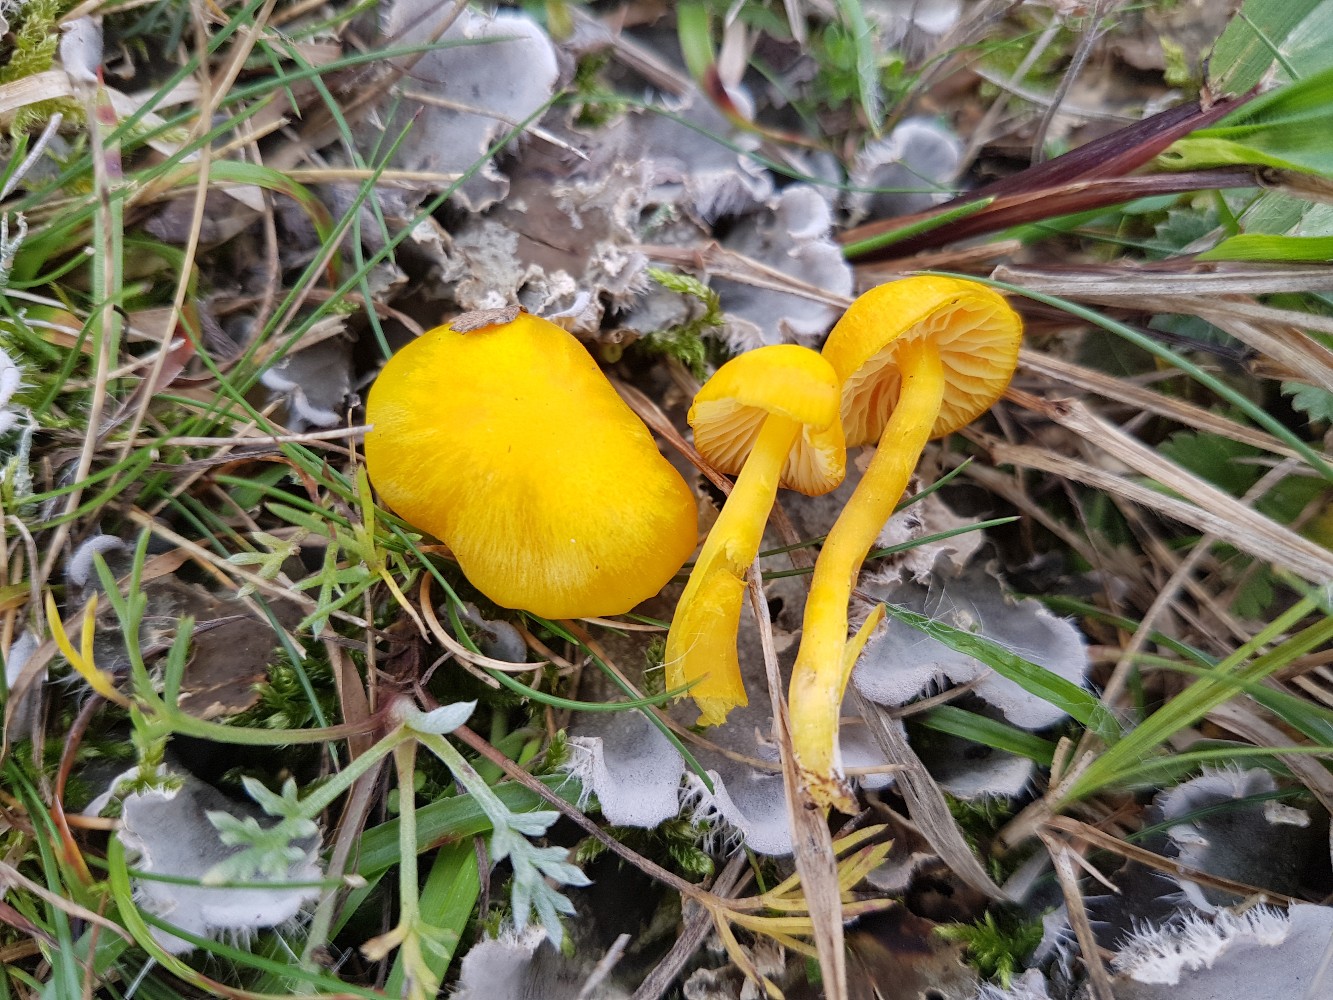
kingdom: Fungi
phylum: Basidiomycota
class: Agaricomycetes
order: Agaricales
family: Hygrophoraceae
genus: Hygrocybe
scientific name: Hygrocybe ceracea
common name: voksgul vokshat
